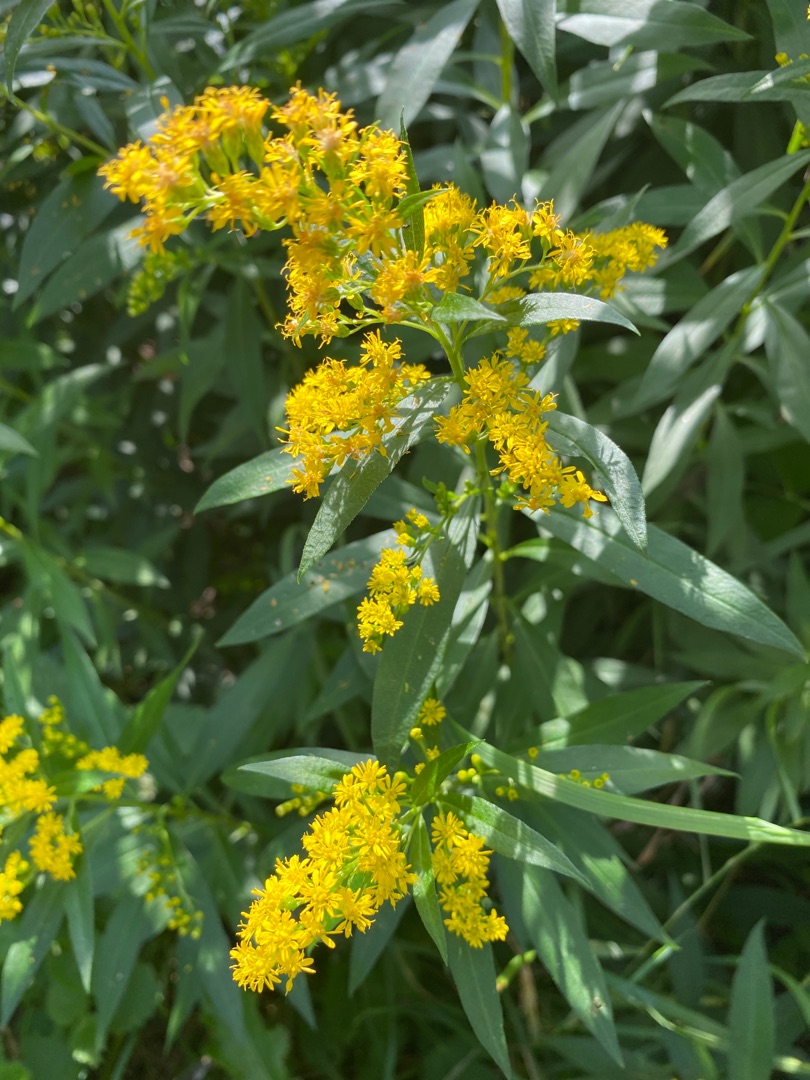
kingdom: Plantae
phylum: Tracheophyta
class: Magnoliopsida
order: Asterales
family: Asteraceae
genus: Solidago
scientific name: Solidago gigantea
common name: Sildig gyldenris
